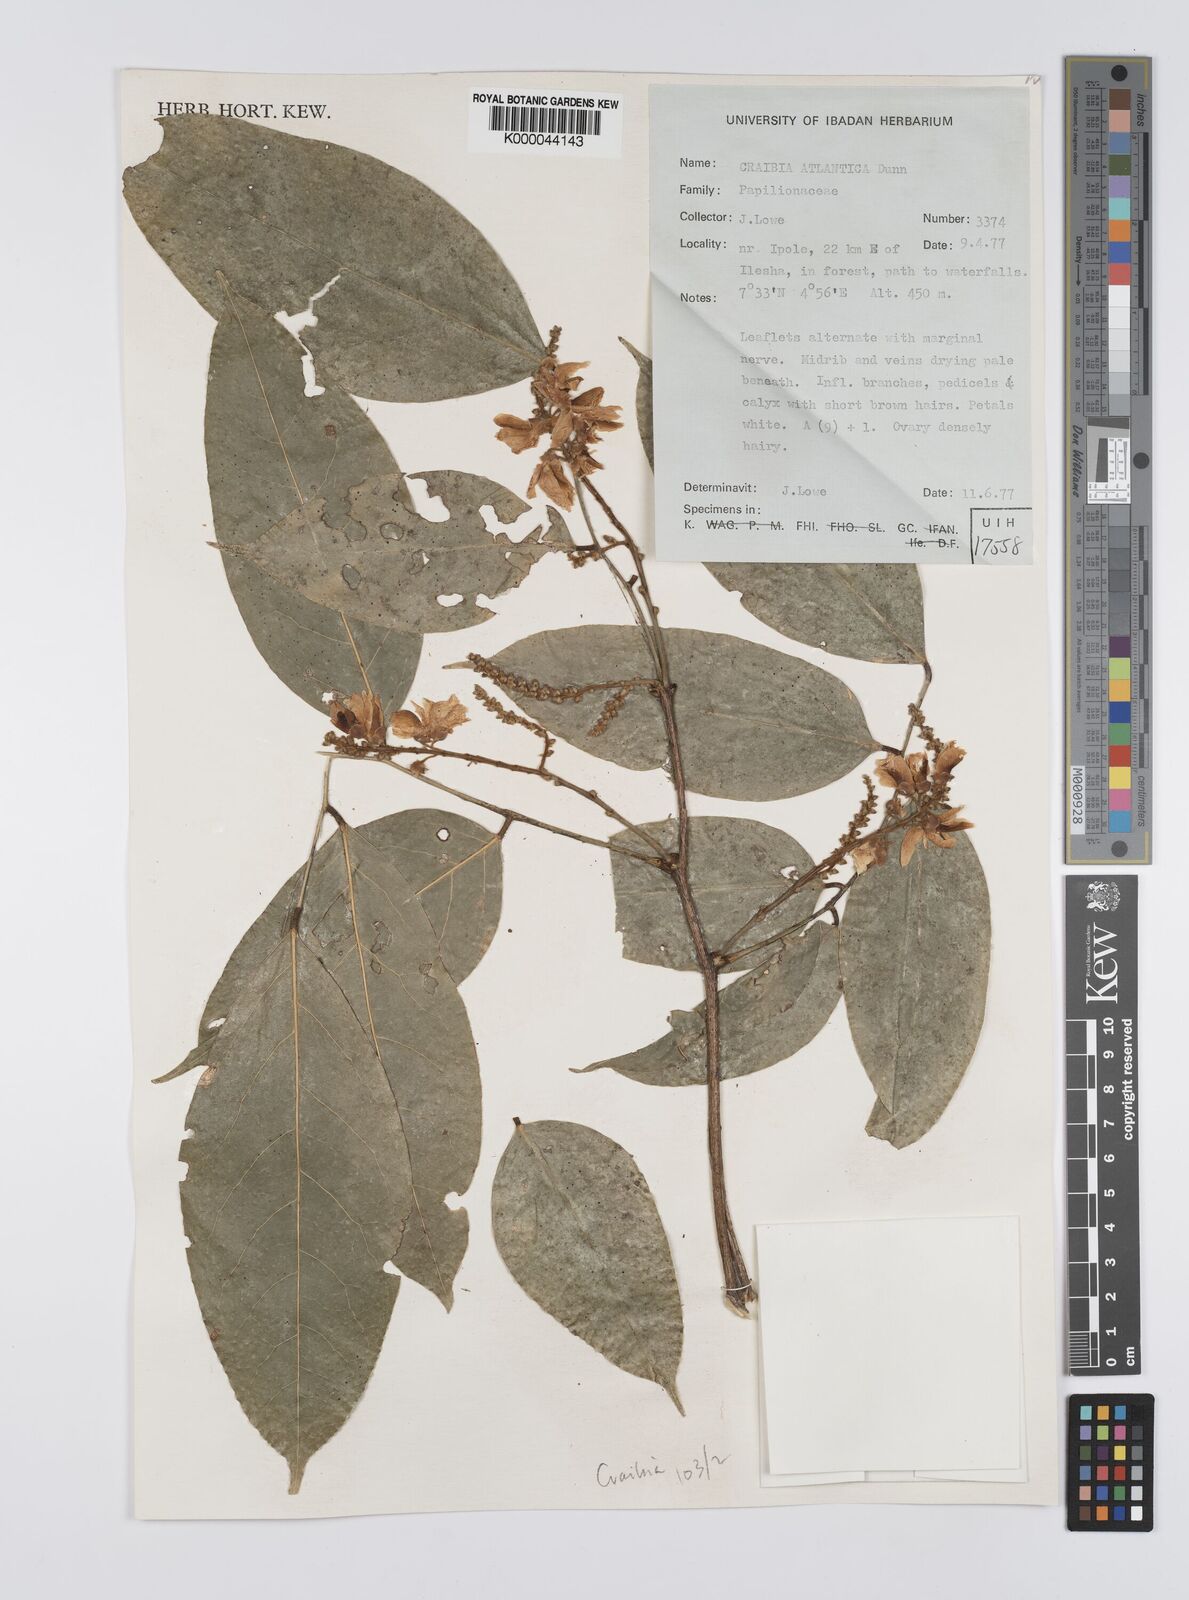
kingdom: Plantae
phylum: Tracheophyta
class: Magnoliopsida
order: Fabales
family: Fabaceae
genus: Craibia
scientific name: Craibia atlantica
